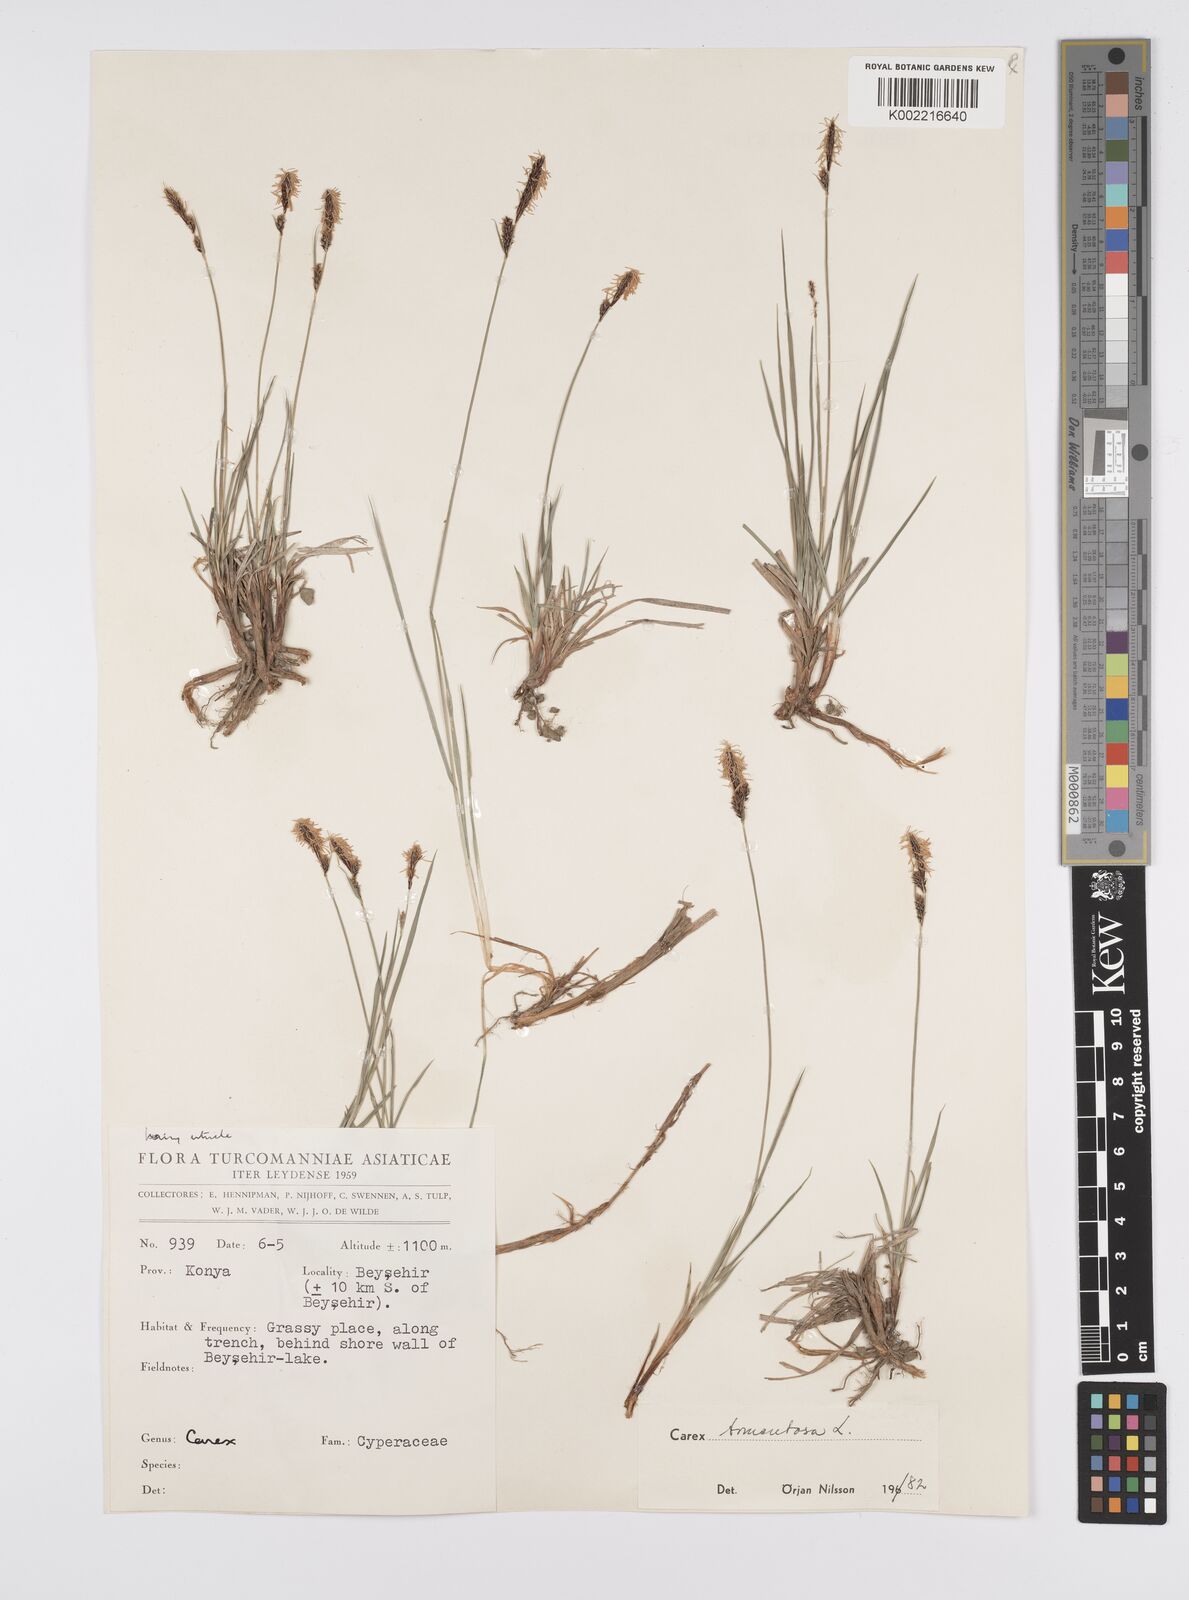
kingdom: Plantae
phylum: Tracheophyta
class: Liliopsida
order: Poales
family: Cyperaceae
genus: Carex
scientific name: Carex montana
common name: Soft-leaved sedge
